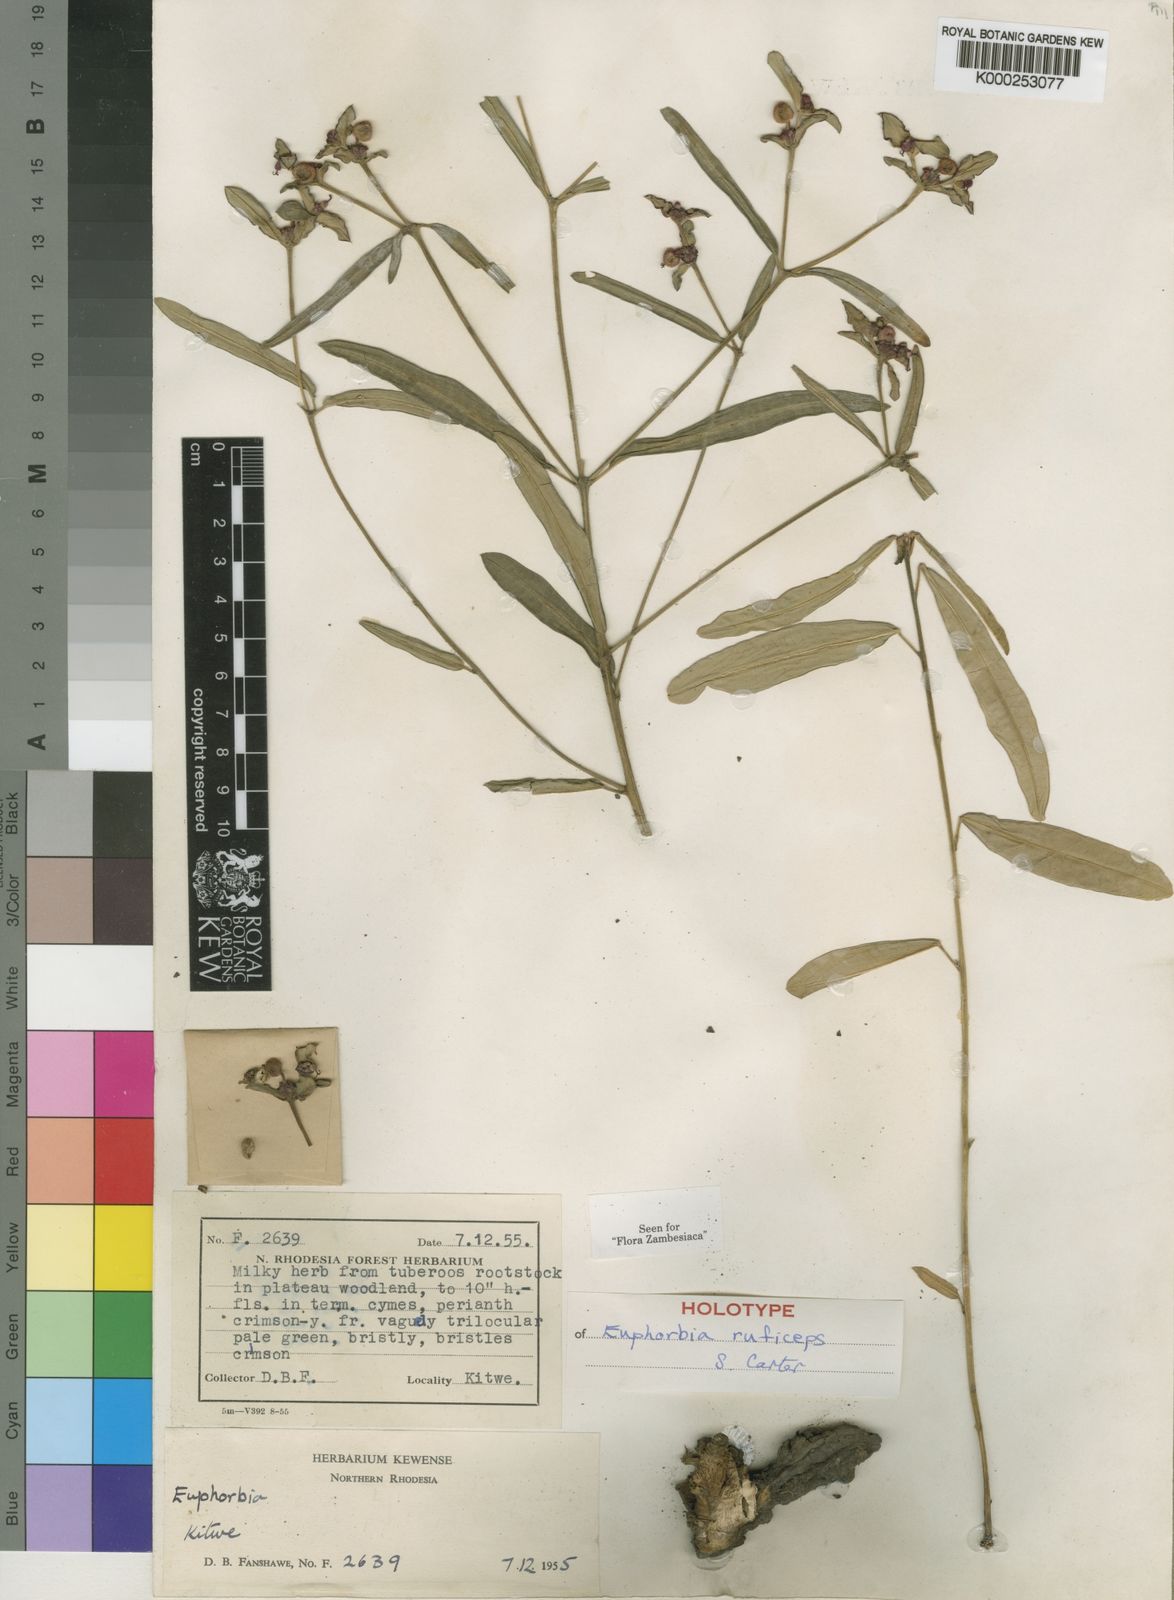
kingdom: Plantae
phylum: Tracheophyta
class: Magnoliopsida
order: Malpighiales
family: Euphorbiaceae
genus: Euphorbia
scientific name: Euphorbia ruficeps
